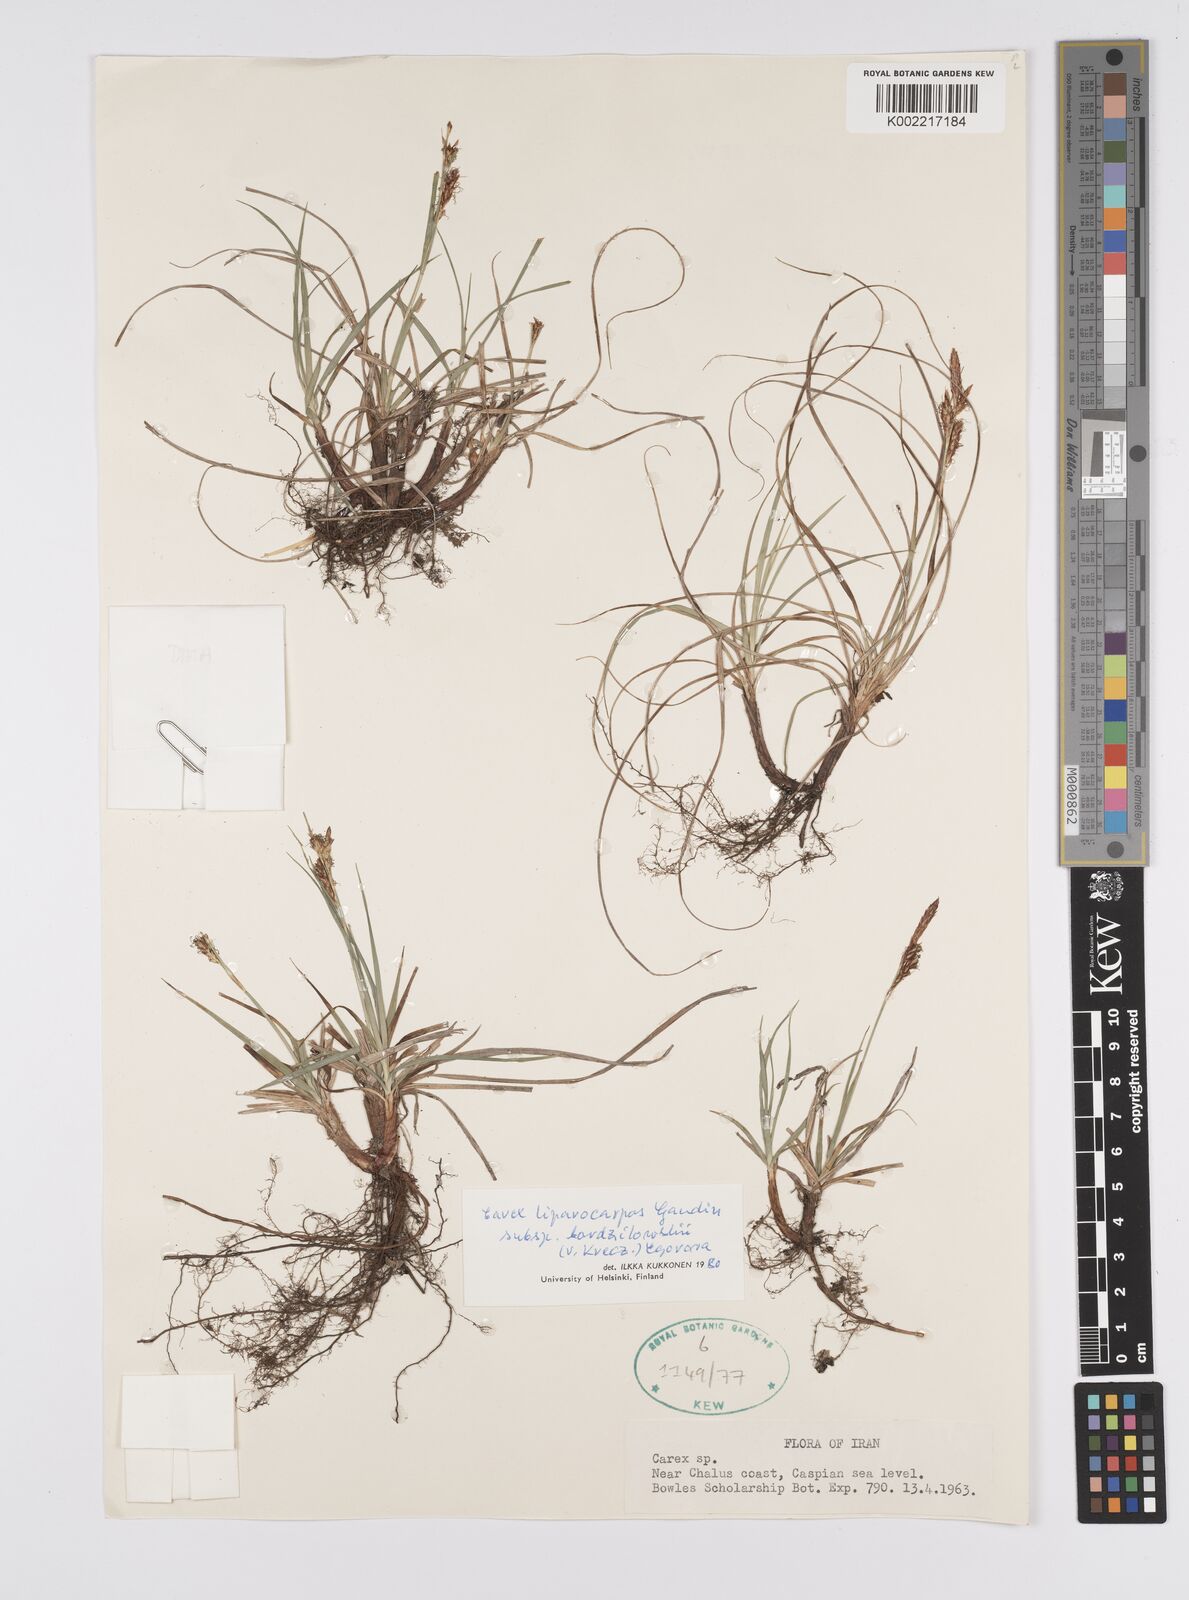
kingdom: Plantae
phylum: Tracheophyta
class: Liliopsida
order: Poales
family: Cyperaceae
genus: Carex
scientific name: Carex liparocarpos
